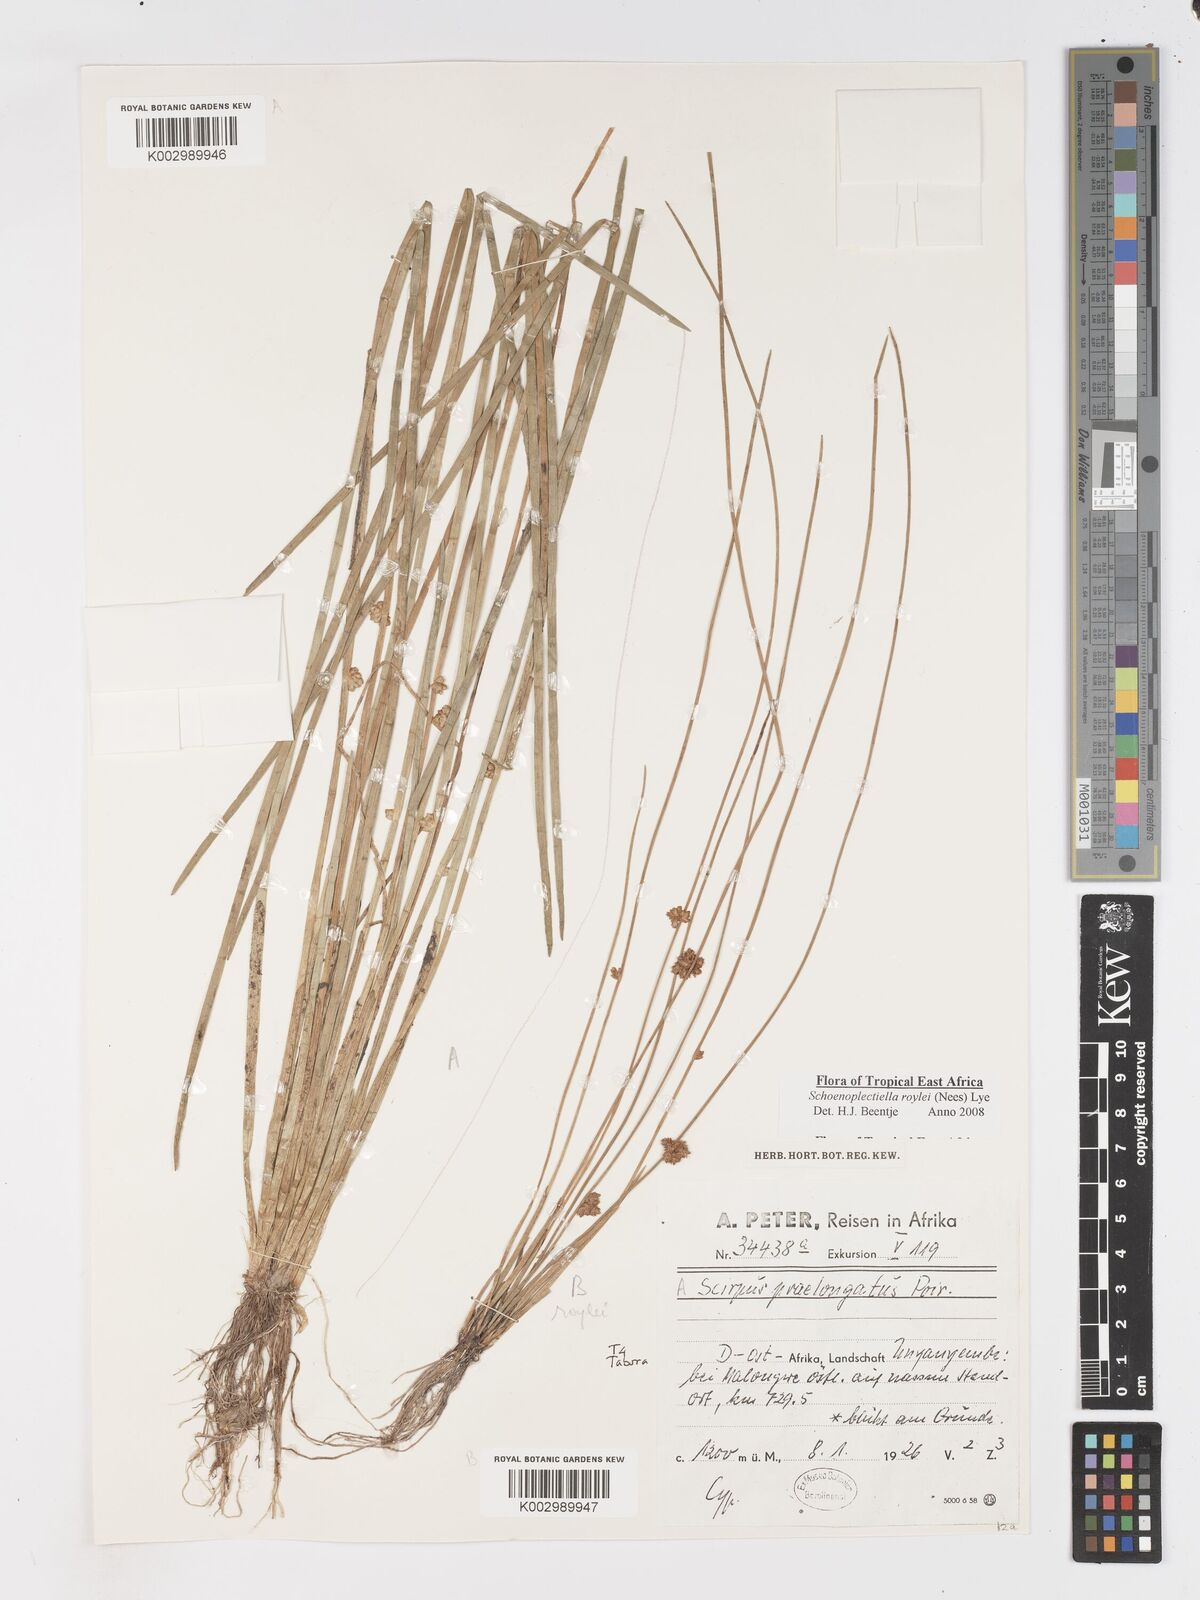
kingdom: Plantae
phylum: Tracheophyta
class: Liliopsida
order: Poales
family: Cyperaceae
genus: Schoenoplectiella
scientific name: Schoenoplectiella roylei
